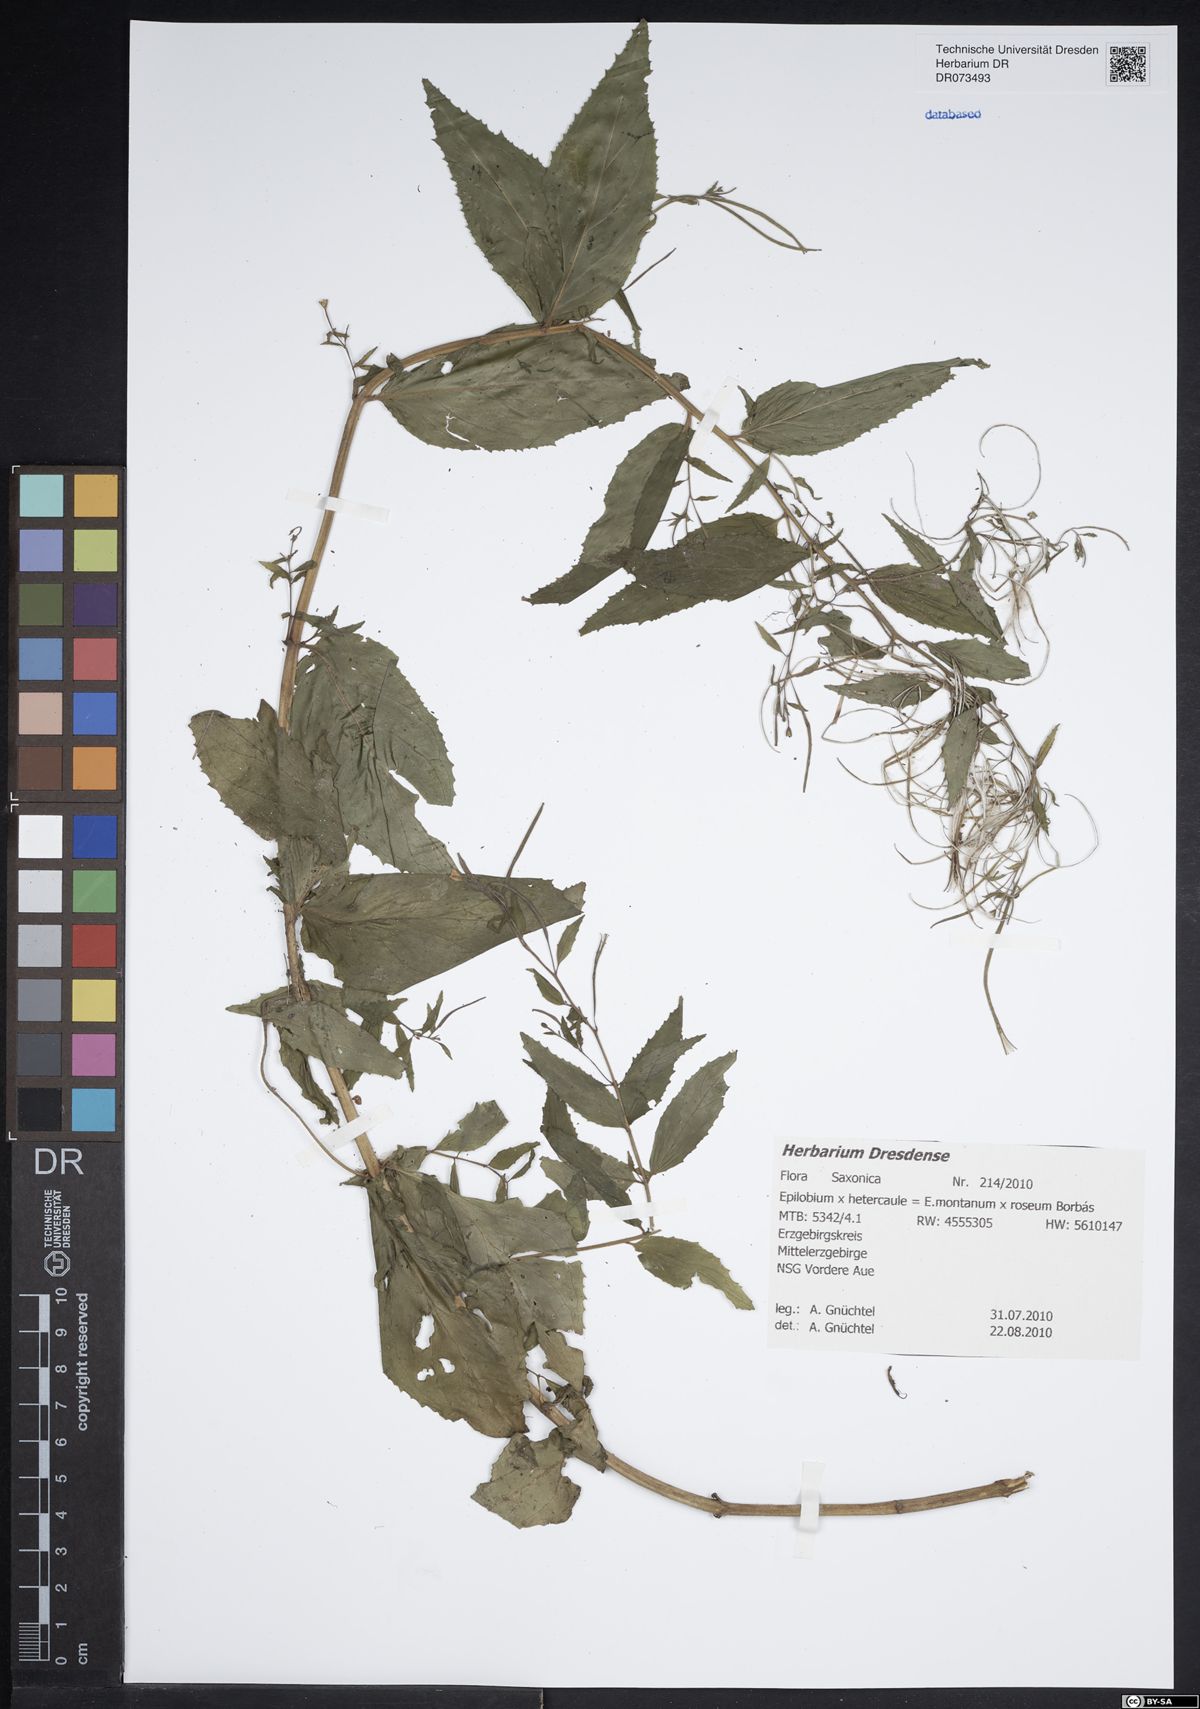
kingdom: Plantae
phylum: Tracheophyta
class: Magnoliopsida
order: Myrtales
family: Onagraceae
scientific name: Onagraceae
